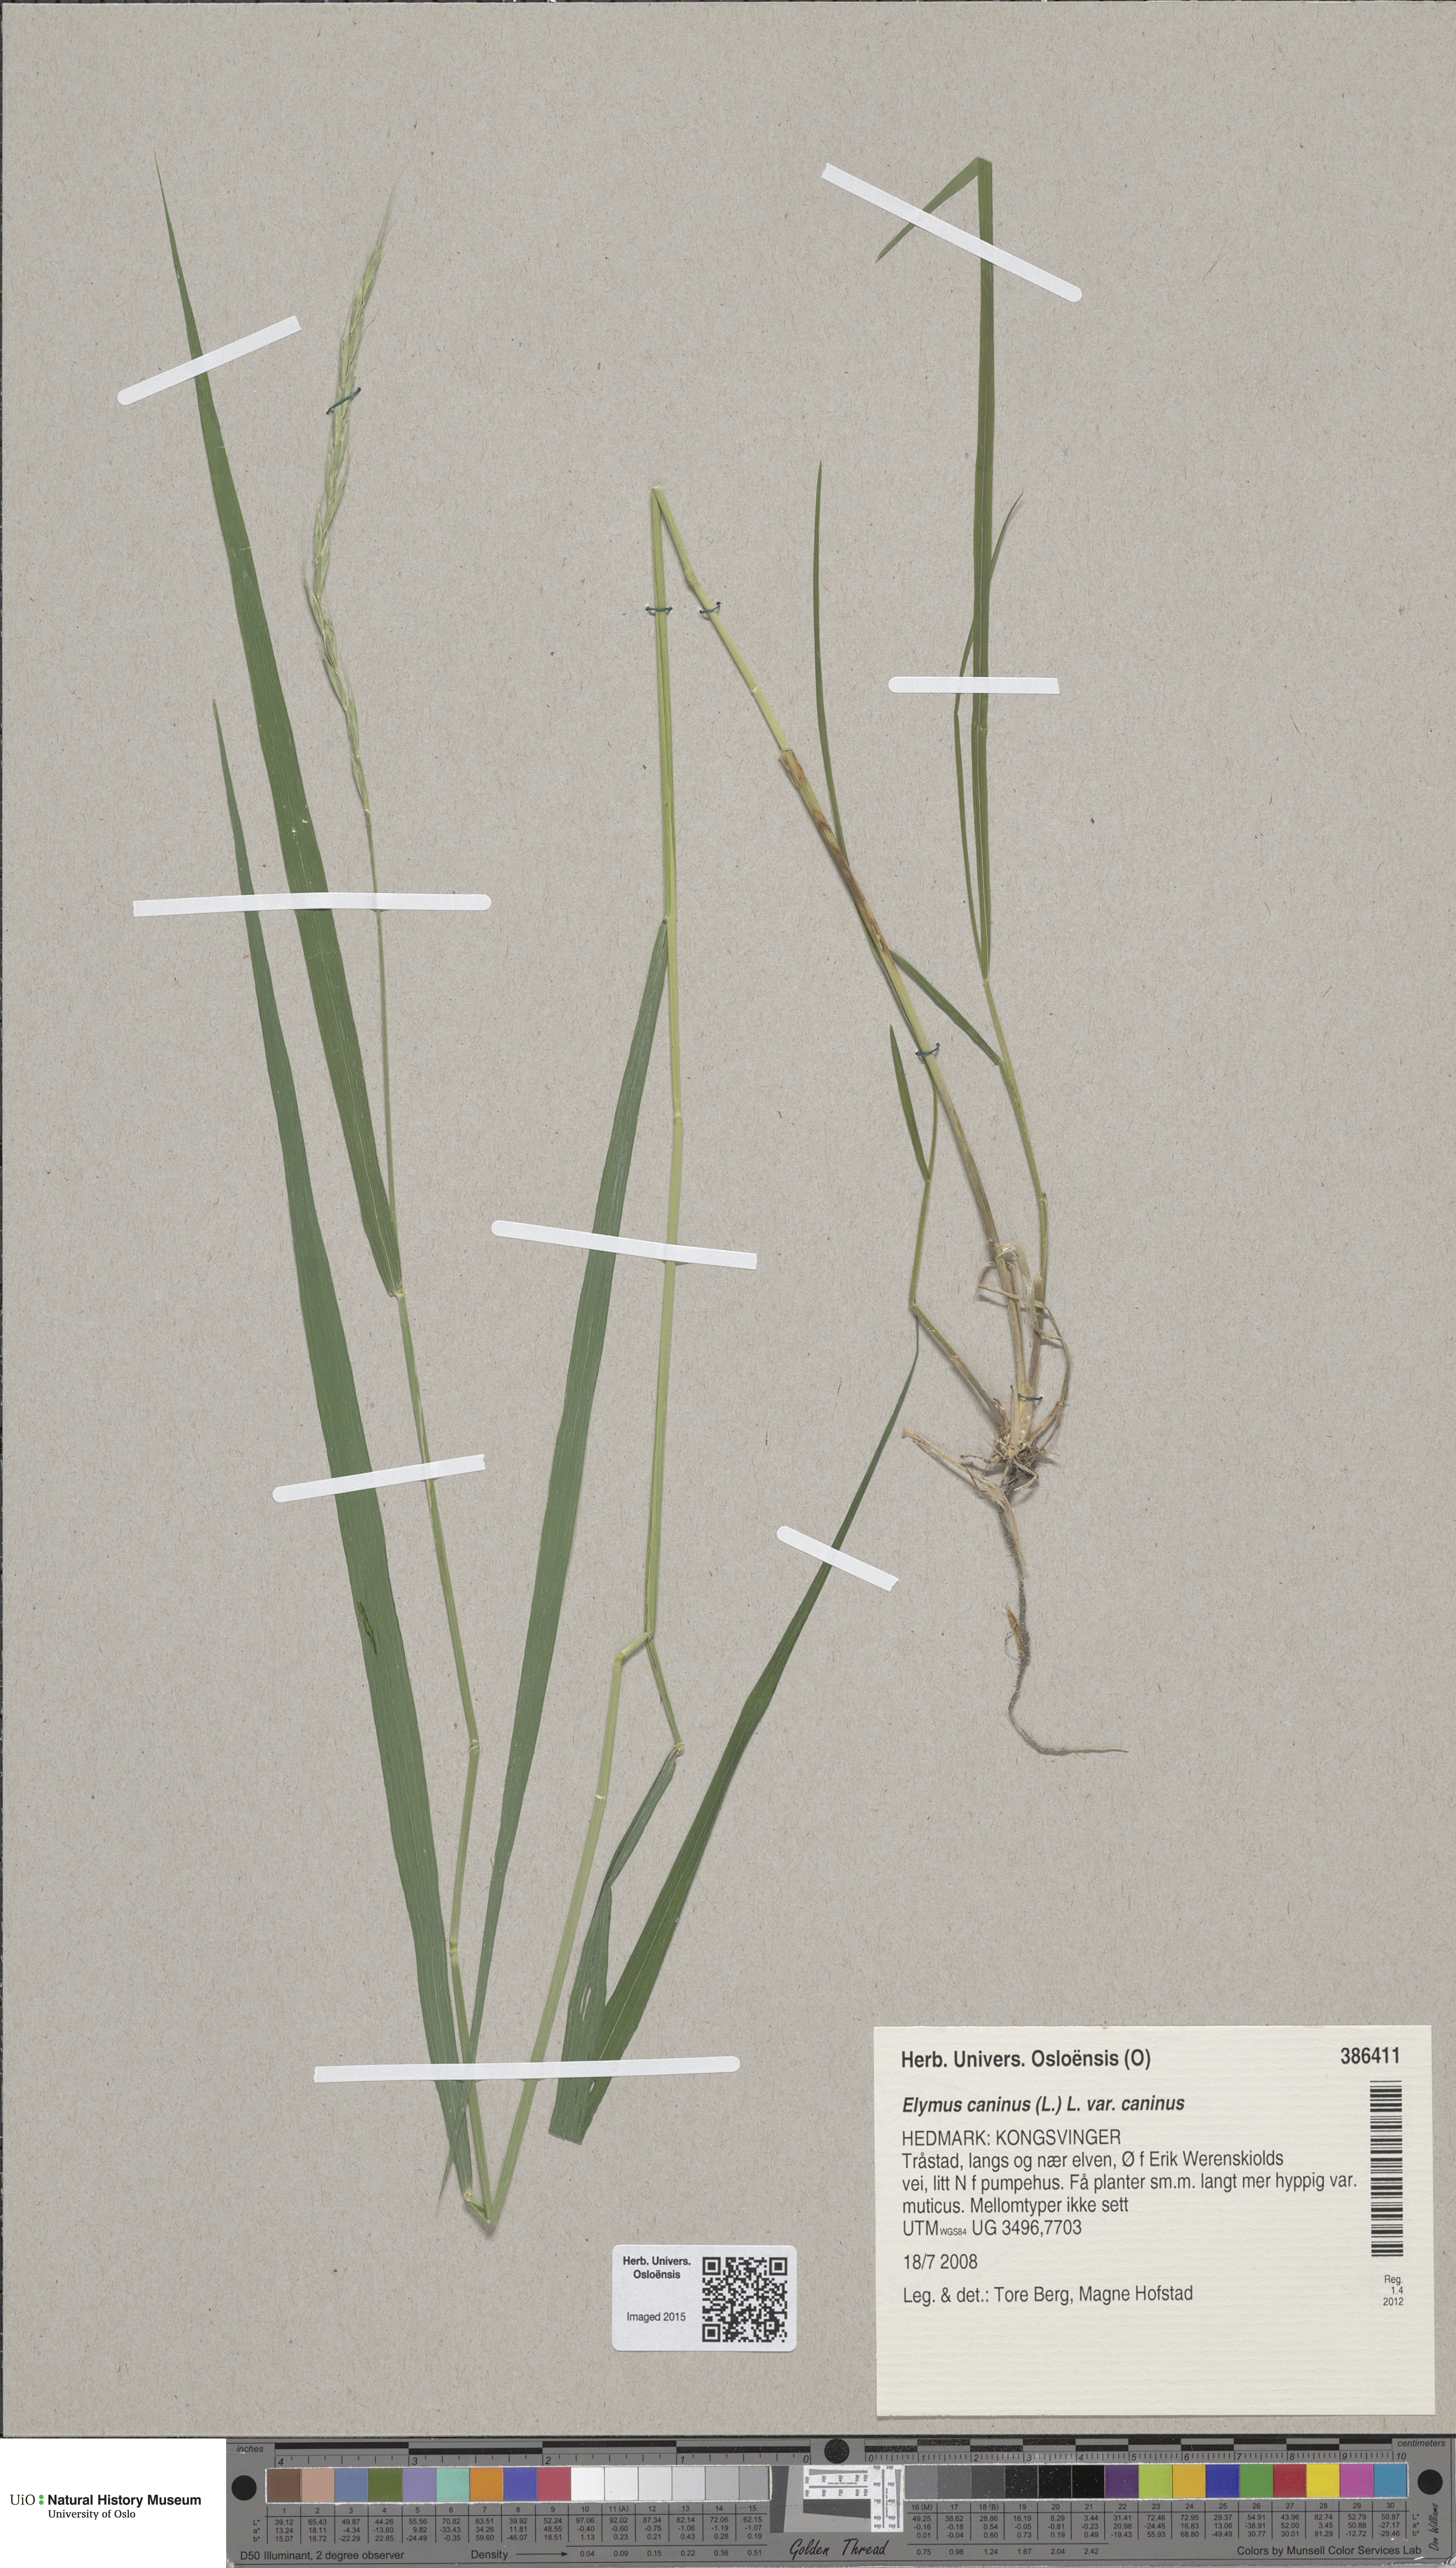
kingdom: Plantae
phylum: Tracheophyta
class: Liliopsida
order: Poales
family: Poaceae
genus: Elymus
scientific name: Elymus caninus
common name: Bearded couch
